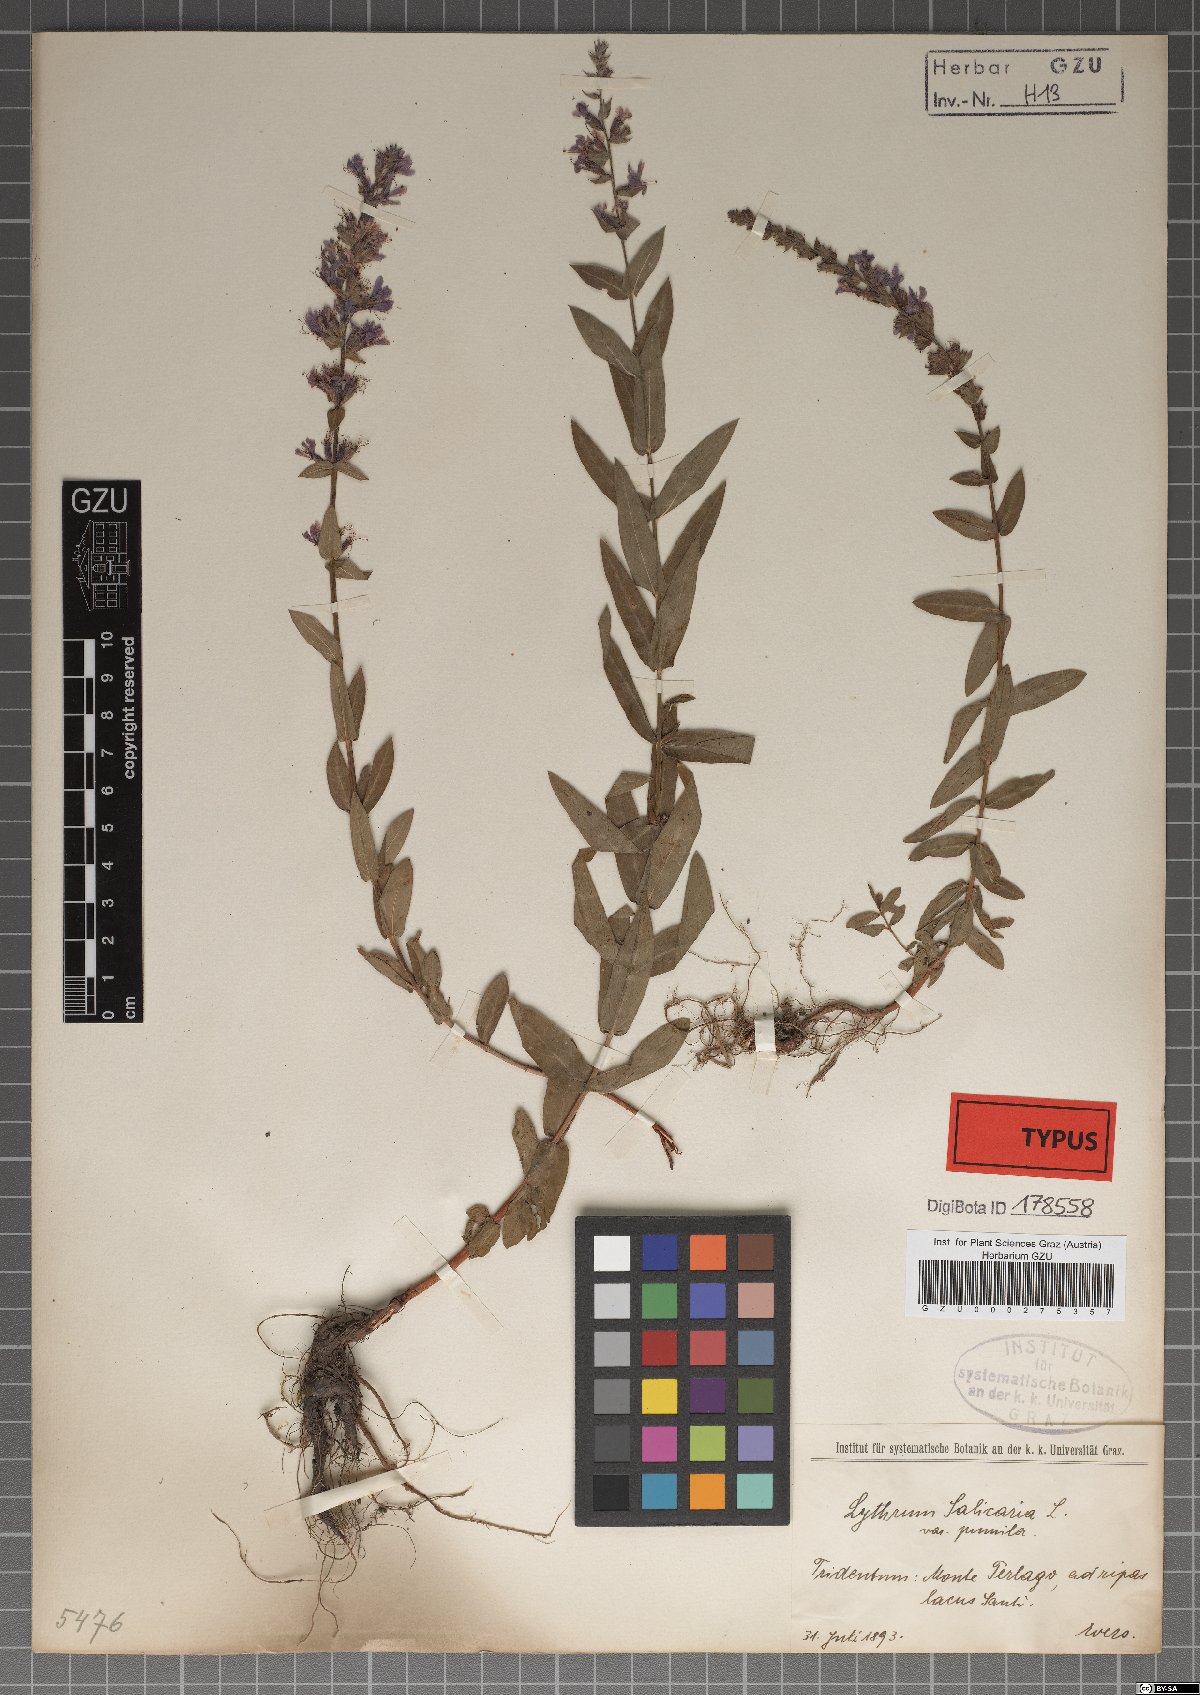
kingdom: Plantae
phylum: Tracheophyta
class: Magnoliopsida
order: Myrtales
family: Lythraceae
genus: Lythrum
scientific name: Lythrum salicaria
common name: Purple loosestrife
